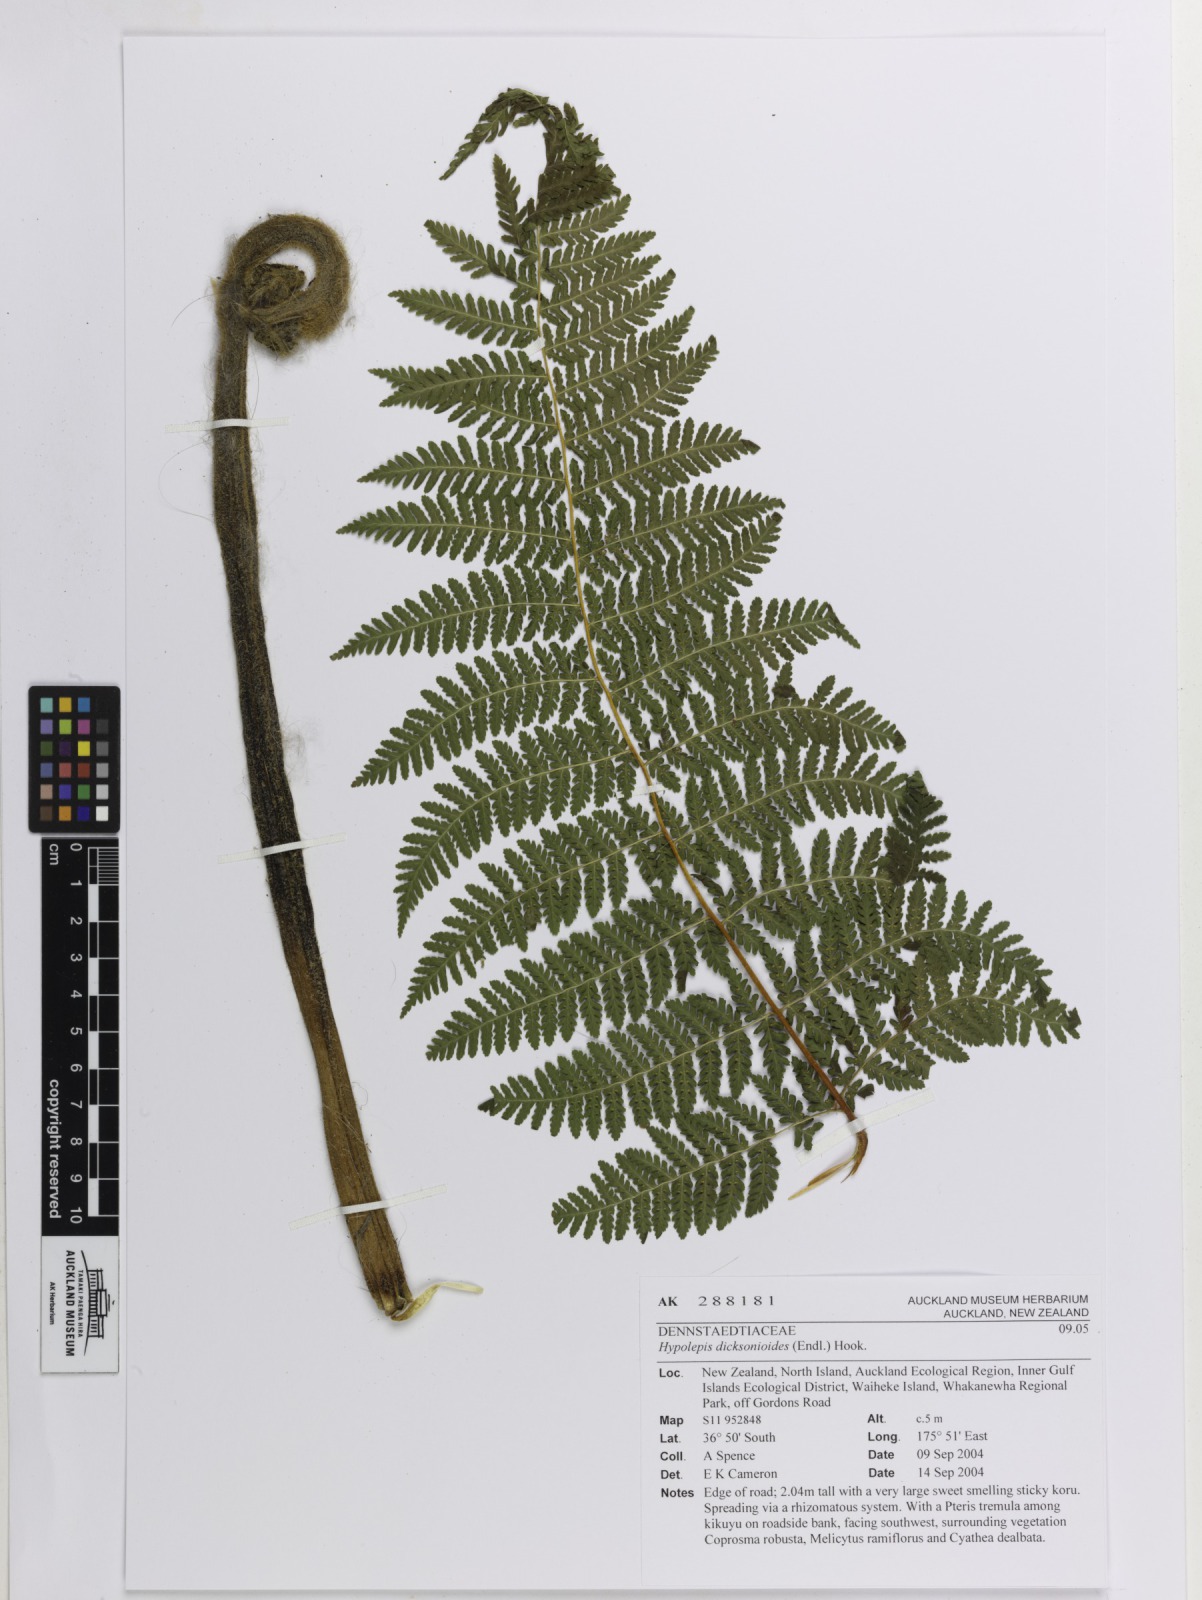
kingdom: Plantae
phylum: Tracheophyta
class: Polypodiopsida
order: Polypodiales
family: Dennstaedtiaceae
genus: Hypolepis
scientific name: Hypolepis dicksonioides
